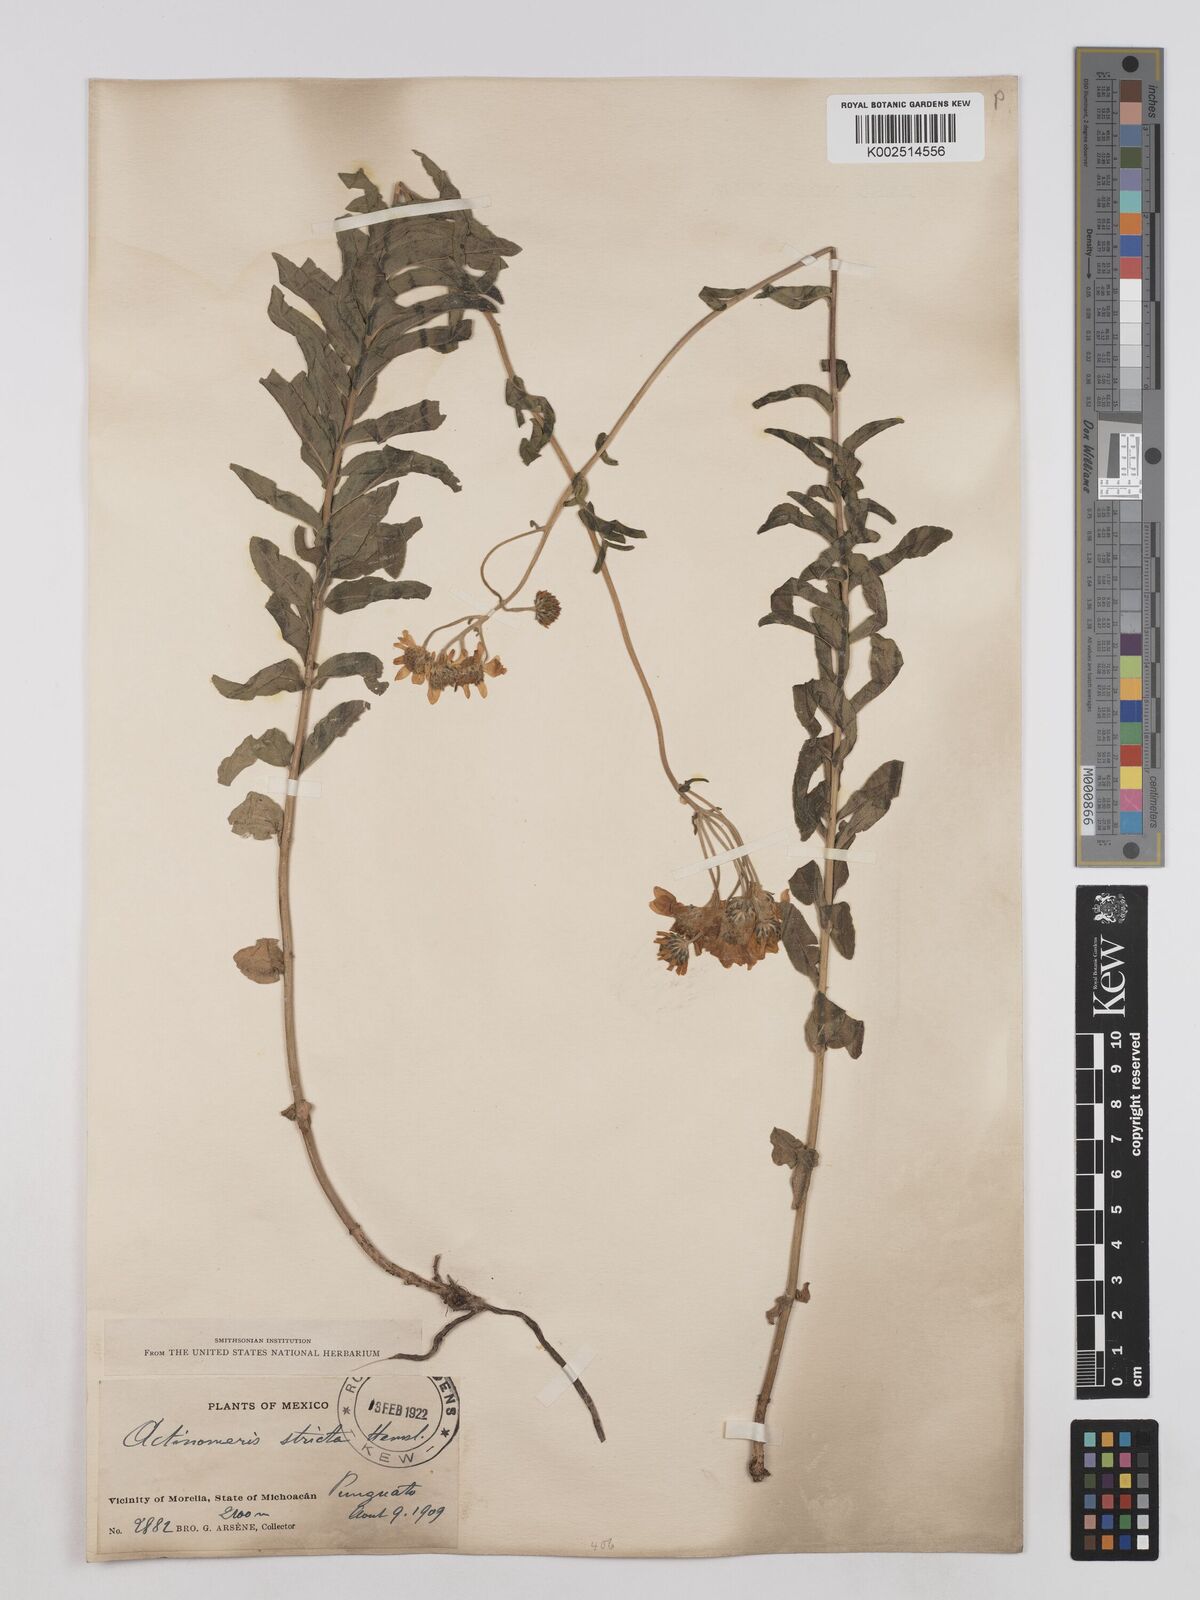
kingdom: Plantae
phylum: Tracheophyta
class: Magnoliopsida
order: Asterales
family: Asteraceae
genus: Verbesina
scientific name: Verbesina parviflora
